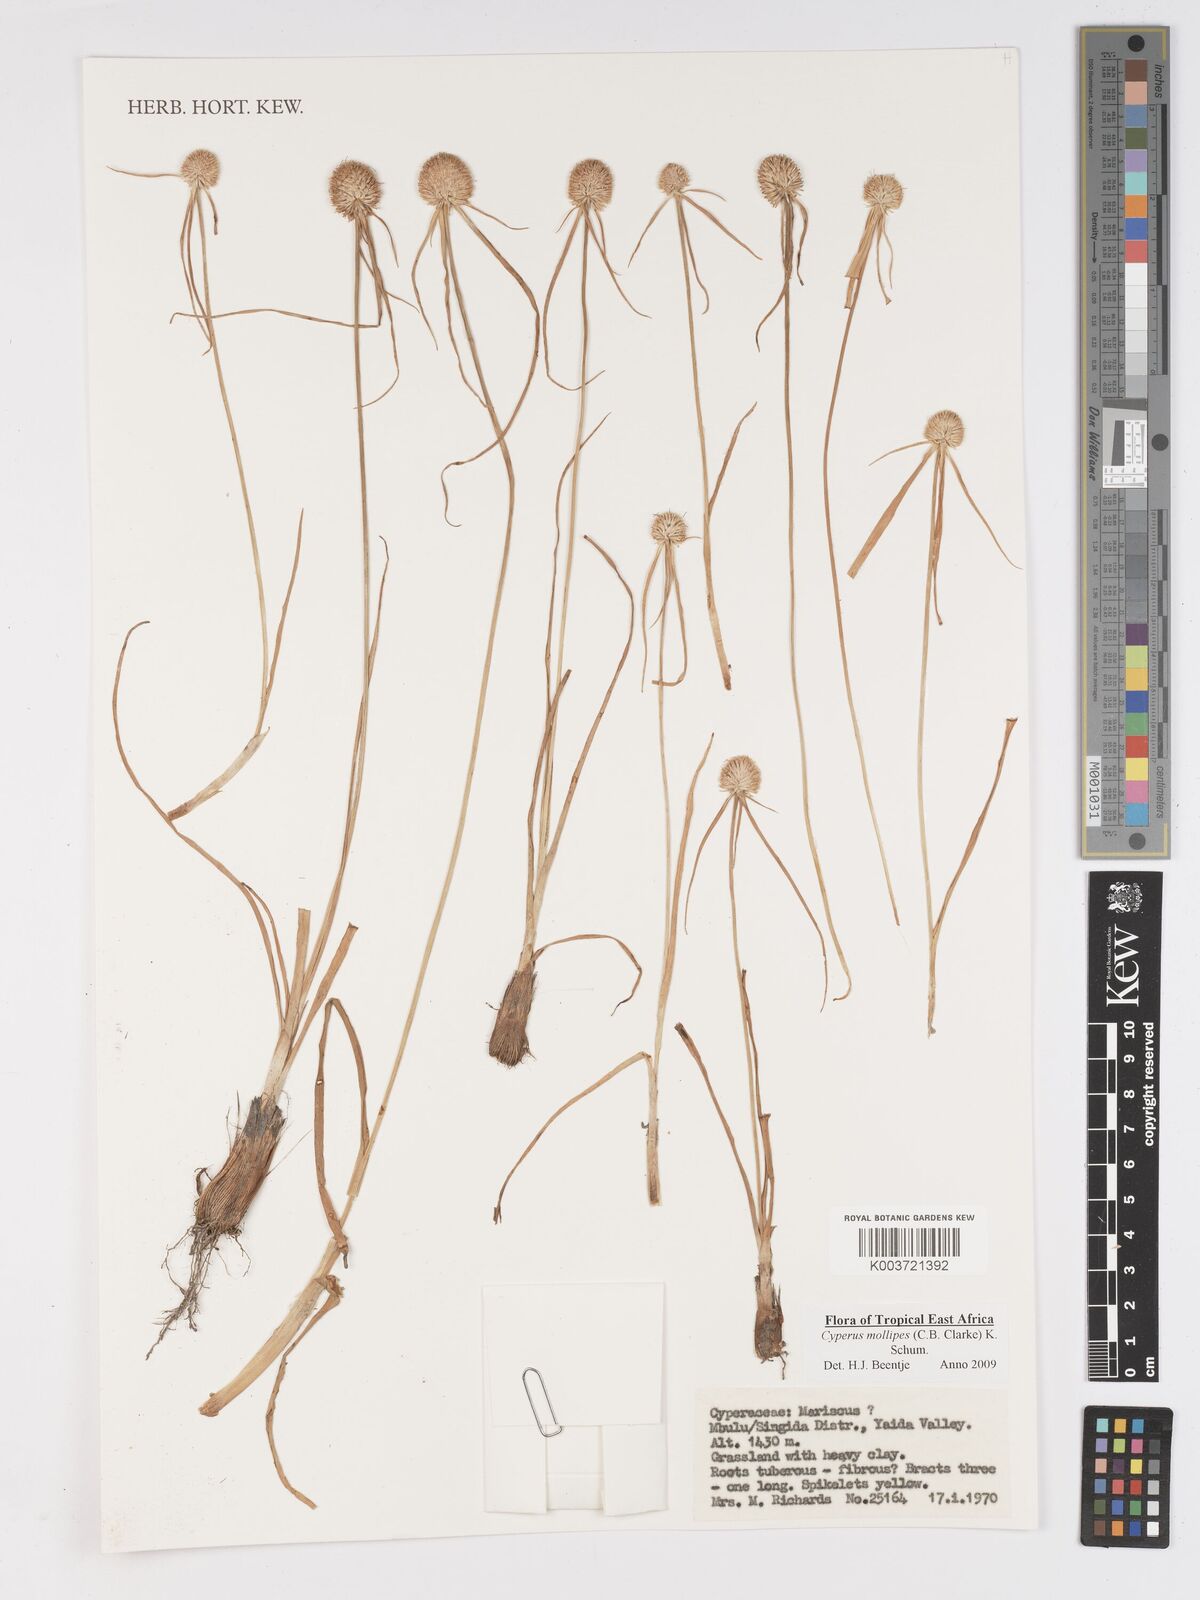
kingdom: Plantae
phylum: Tracheophyta
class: Liliopsida
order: Poales
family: Cyperaceae
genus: Cyperus
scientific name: Cyperus mollipes
